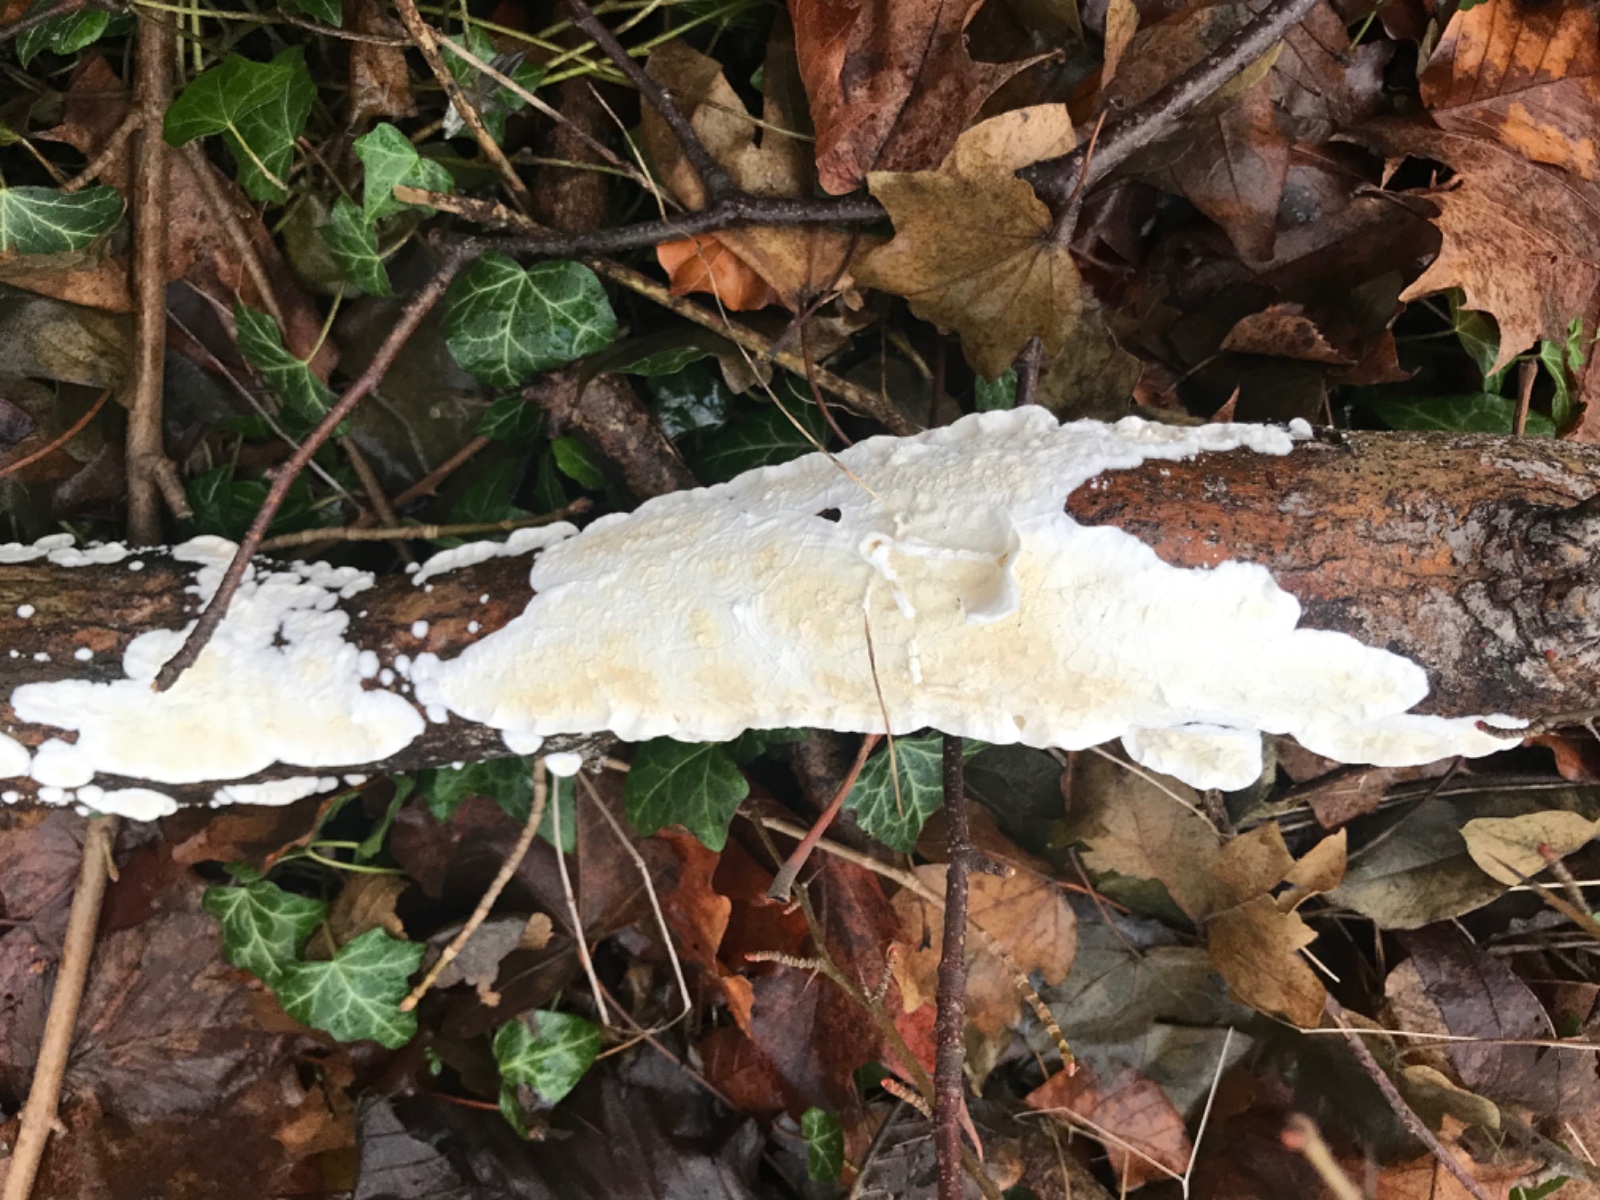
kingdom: Fungi
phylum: Basidiomycota
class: Agaricomycetes
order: Polyporales
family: Irpicaceae
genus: Byssomerulius
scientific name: Byssomerulius corium
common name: læder-åresvamp
